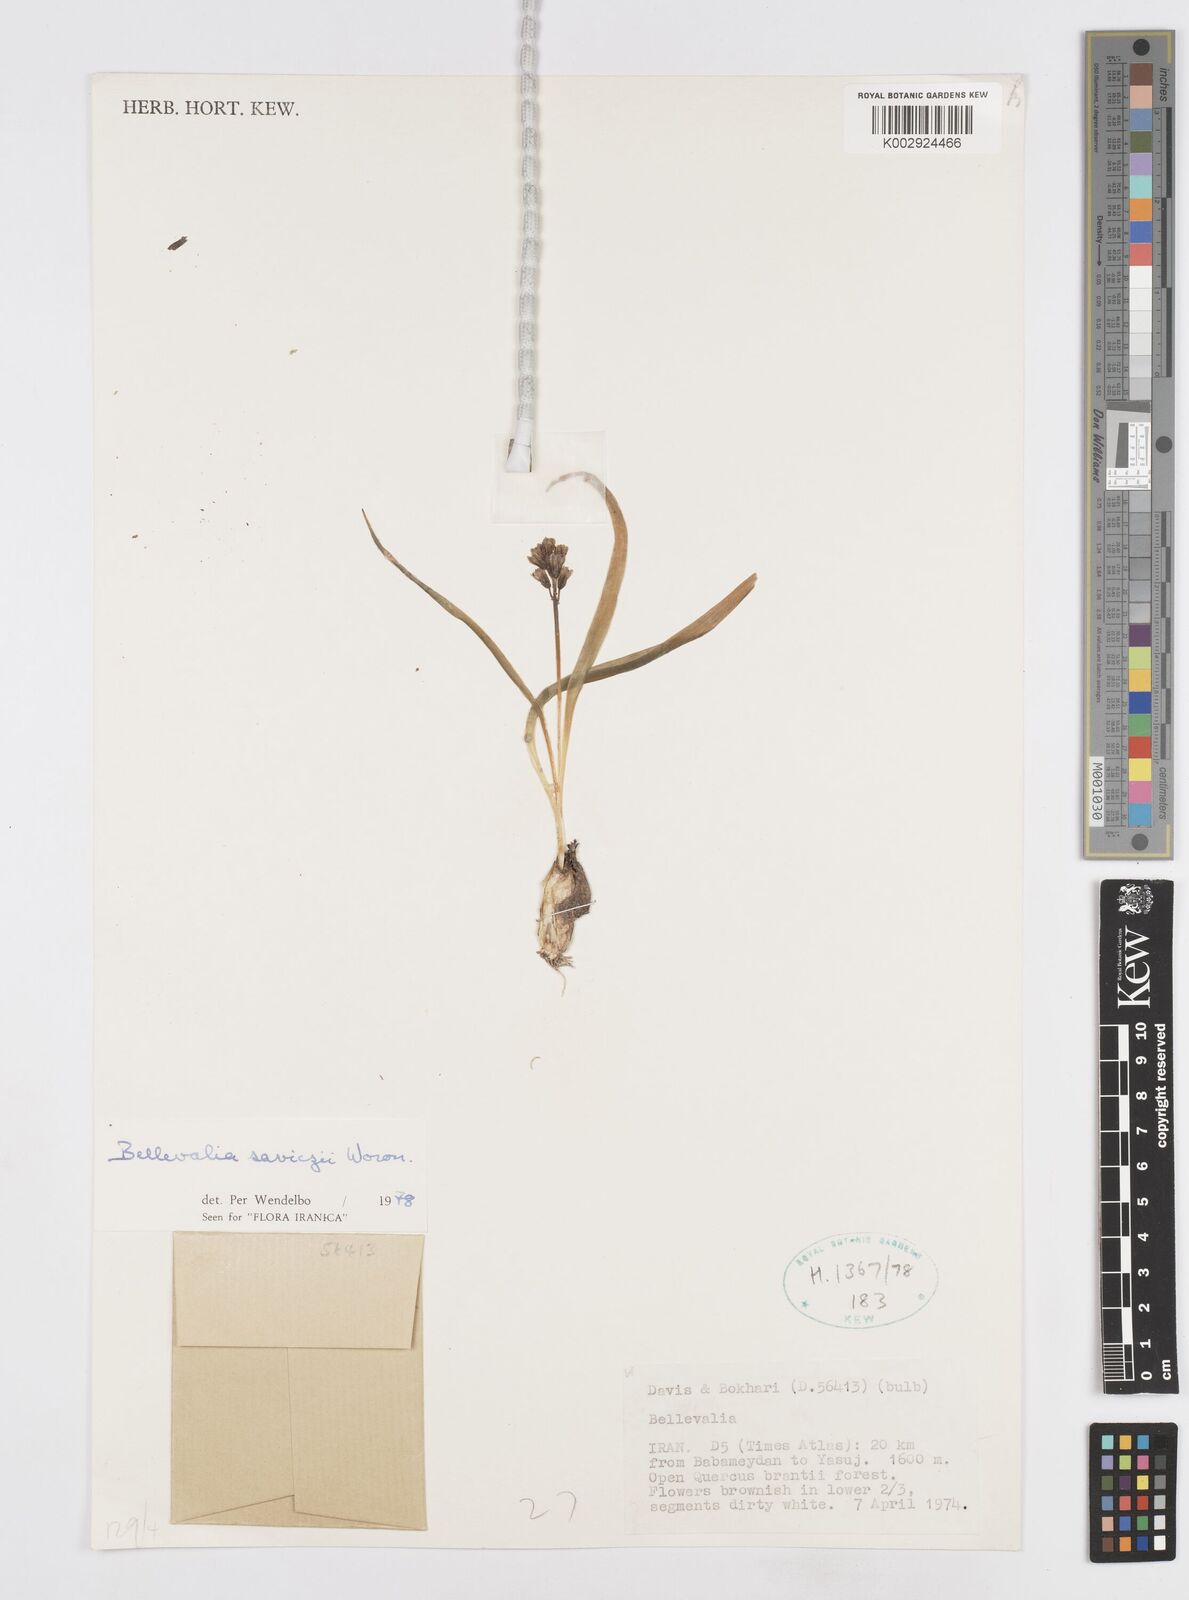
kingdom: Plantae
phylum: Tracheophyta
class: Liliopsida
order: Asparagales
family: Asparagaceae
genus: Bellevalia
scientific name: Bellevalia saviczii
